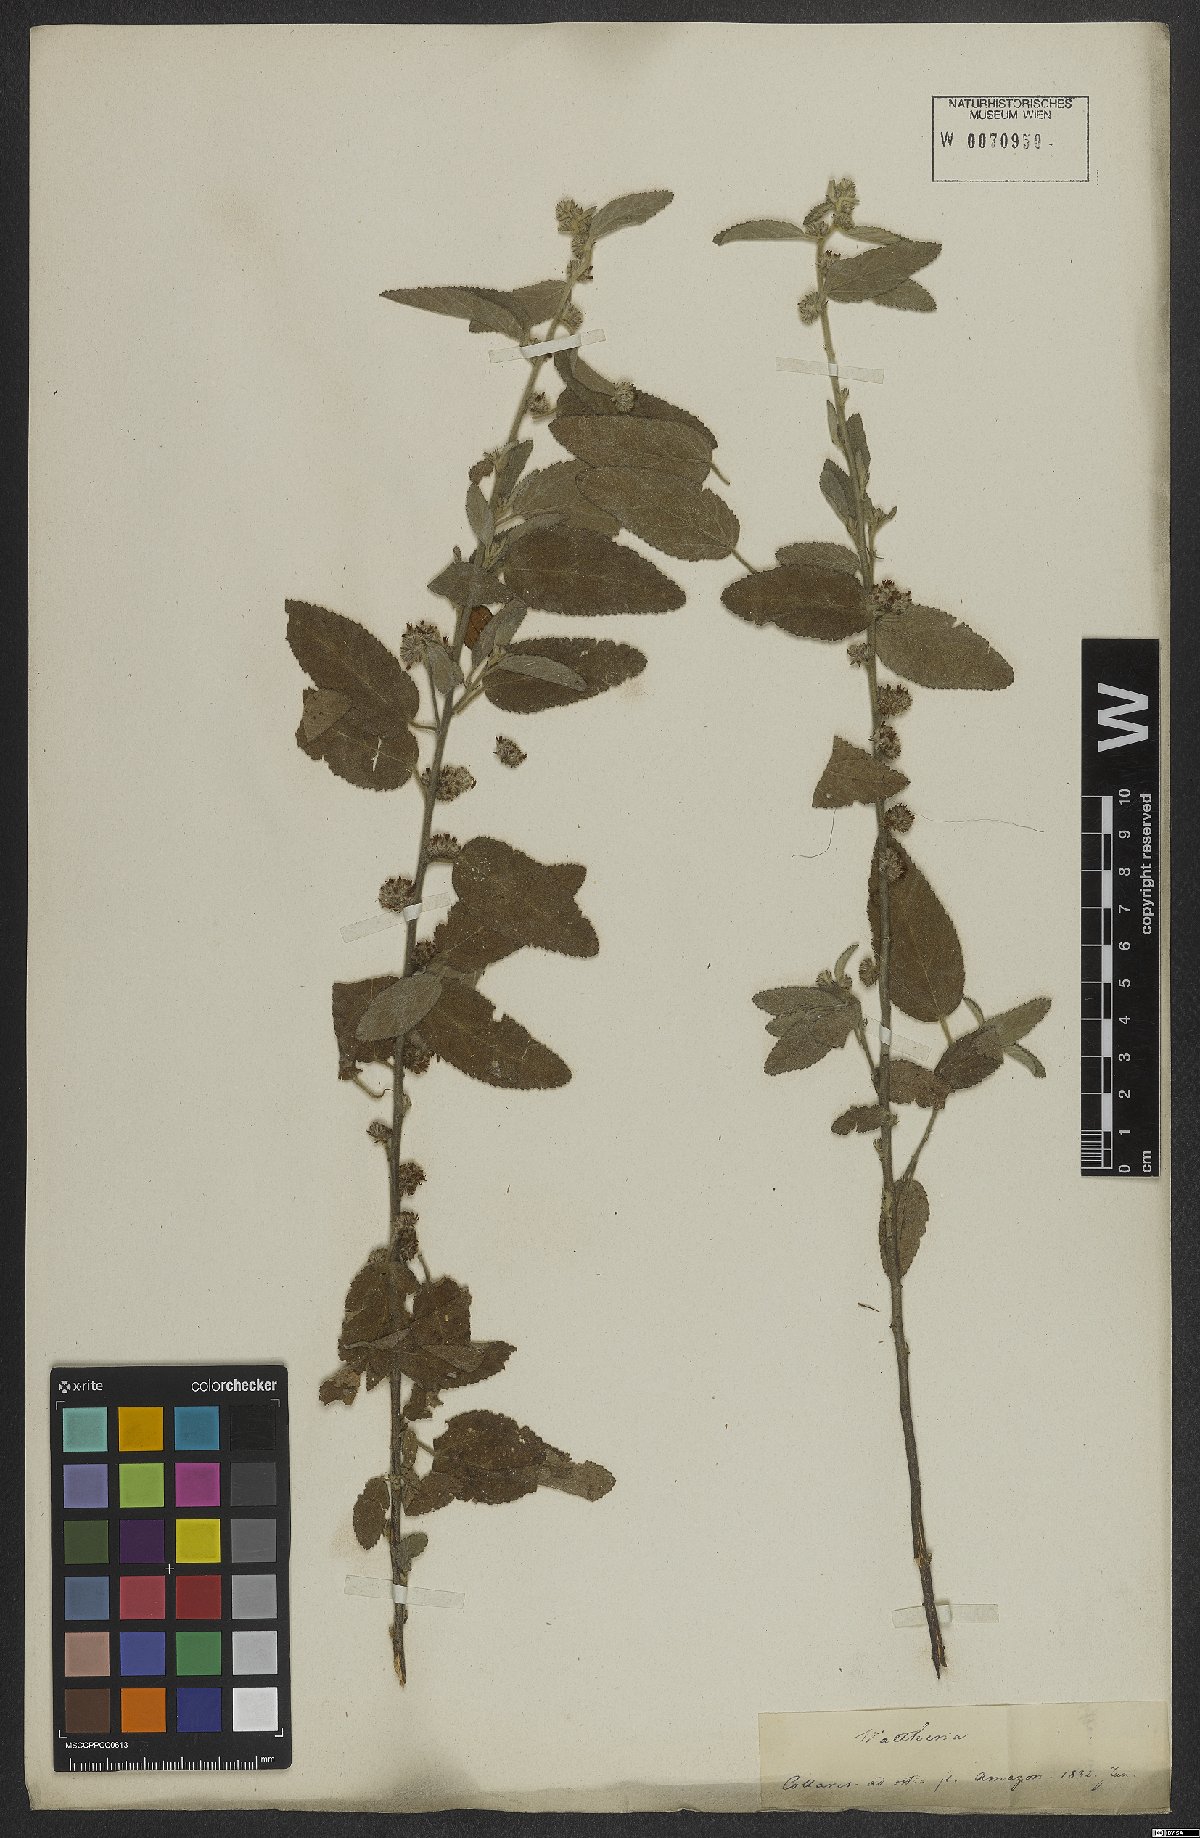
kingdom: Plantae
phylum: Tracheophyta
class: Magnoliopsida
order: Malvales
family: Malvaceae
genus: Waltheria
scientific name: Waltheria indica
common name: Leather-coat
